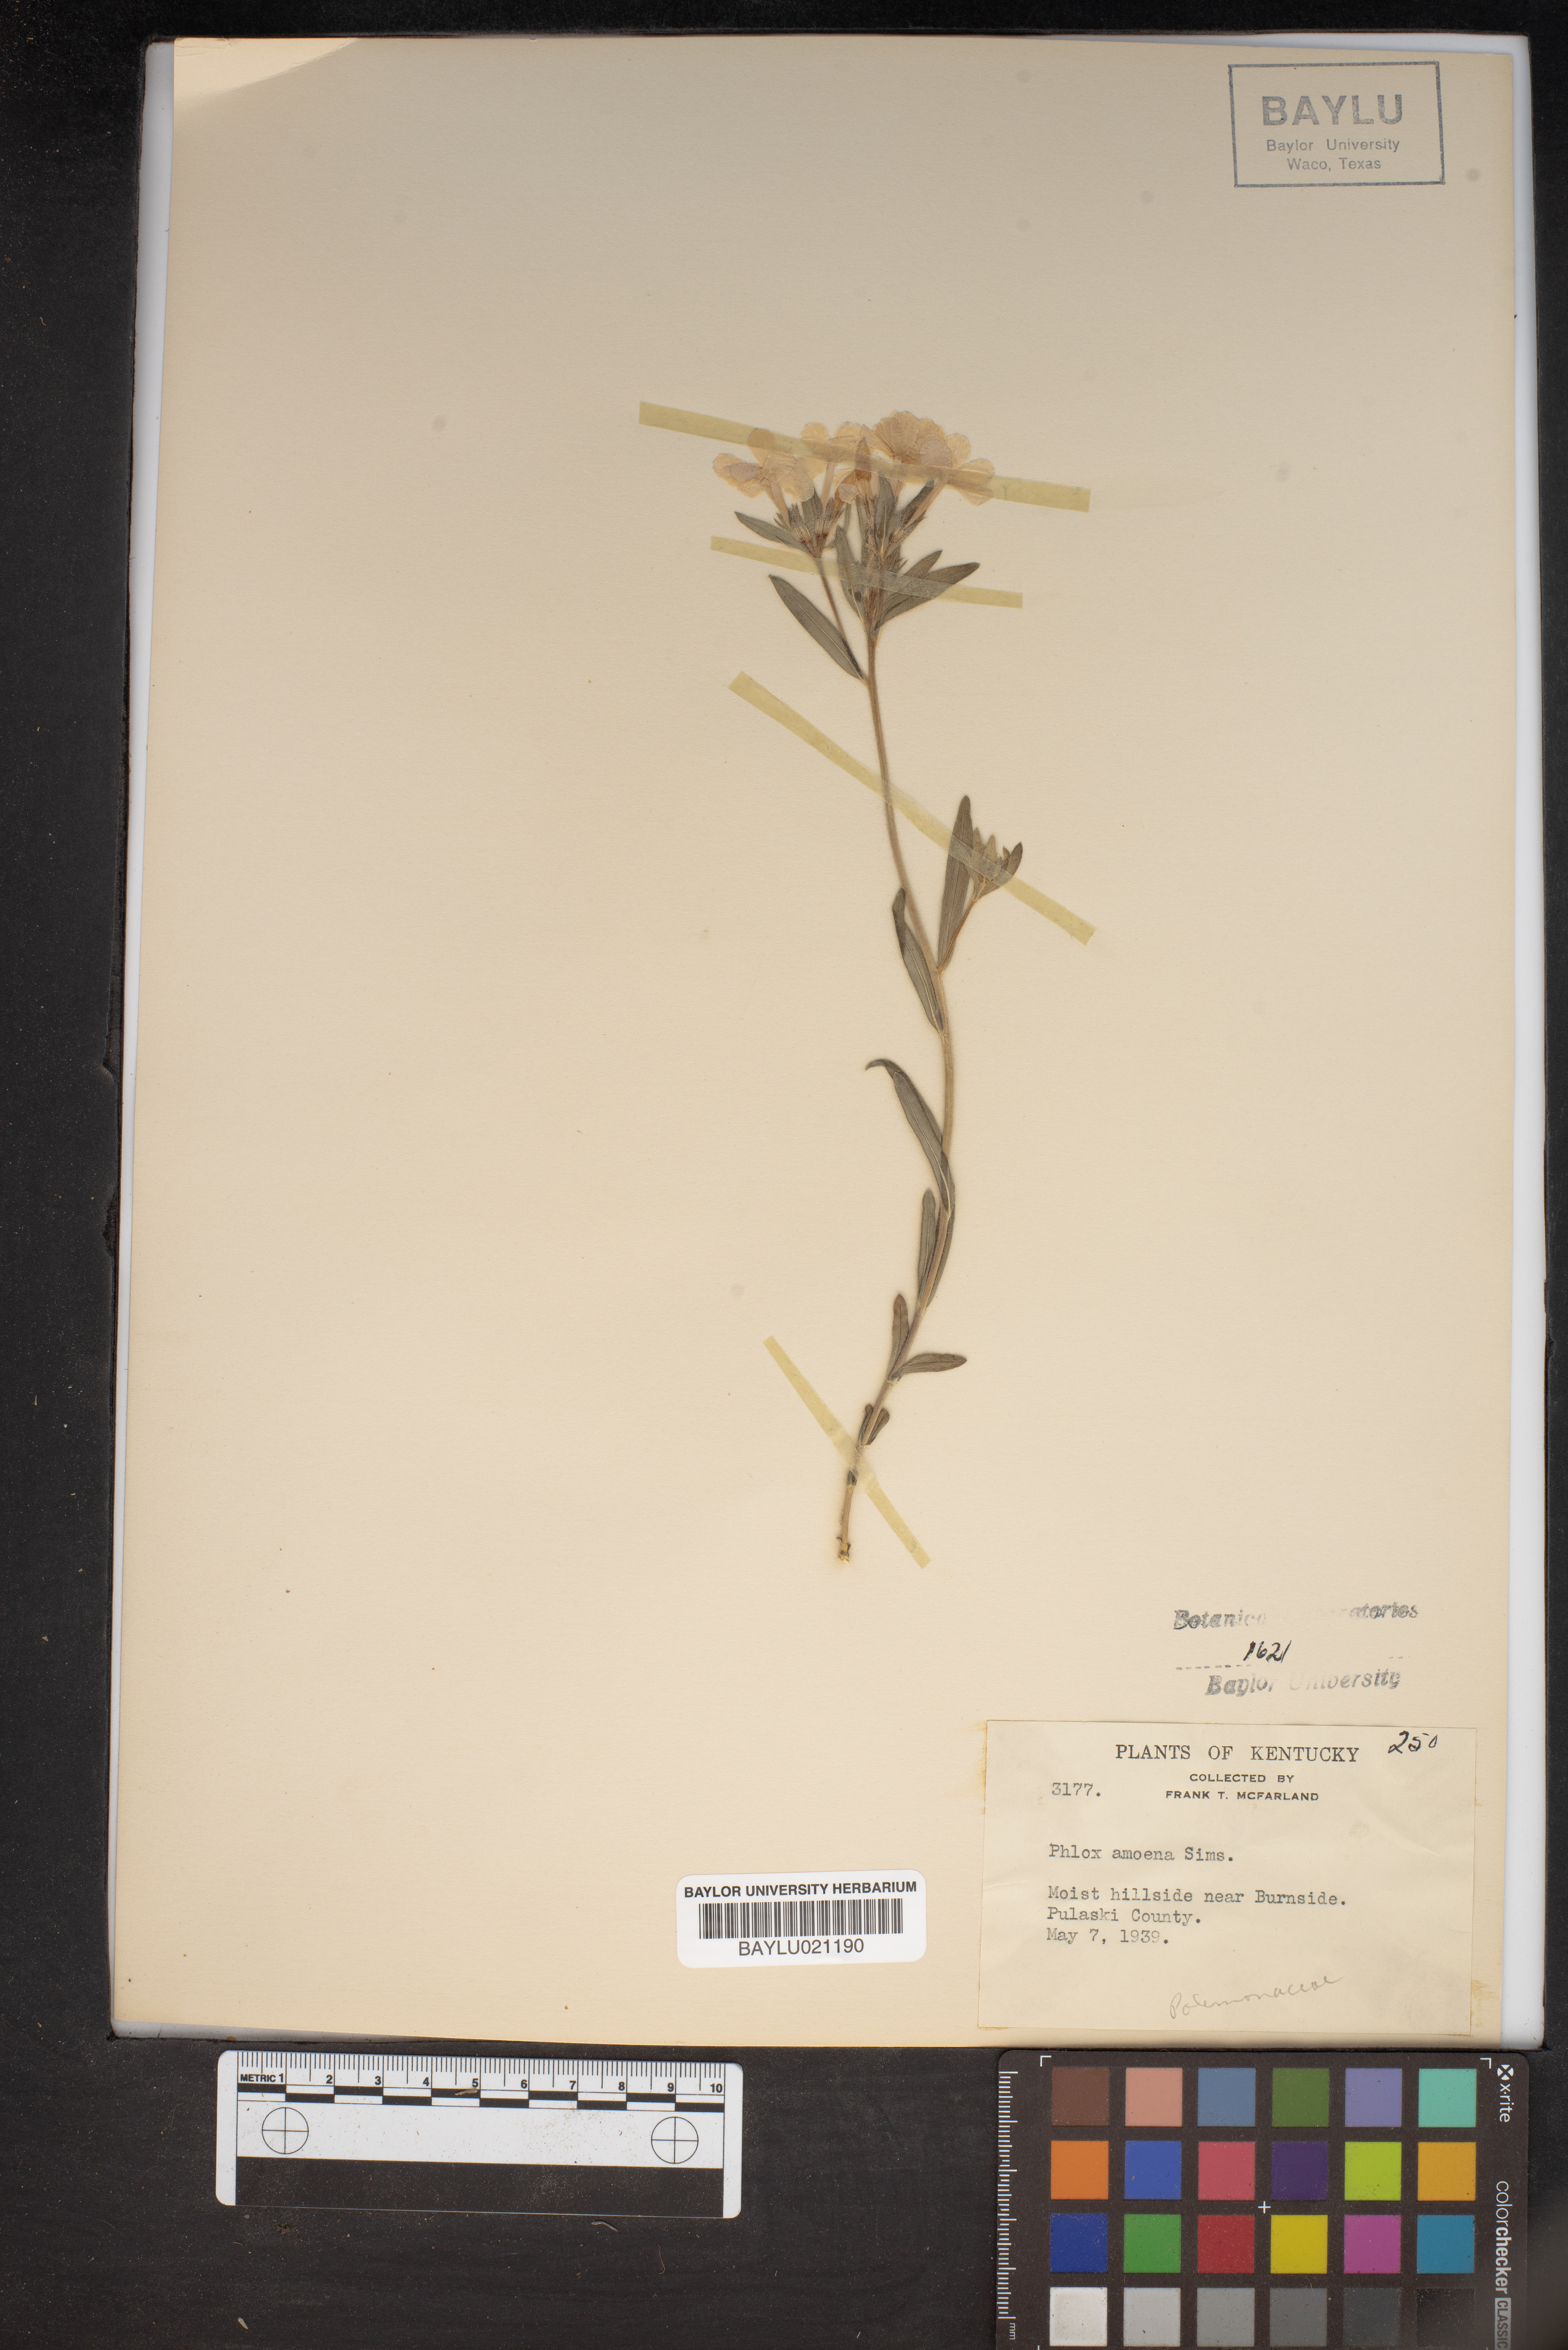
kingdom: Plantae
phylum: Tracheophyta
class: Magnoliopsida
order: Ericales
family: Polemoniaceae
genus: Phlox
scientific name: Phlox amoena
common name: Hairy phlox
